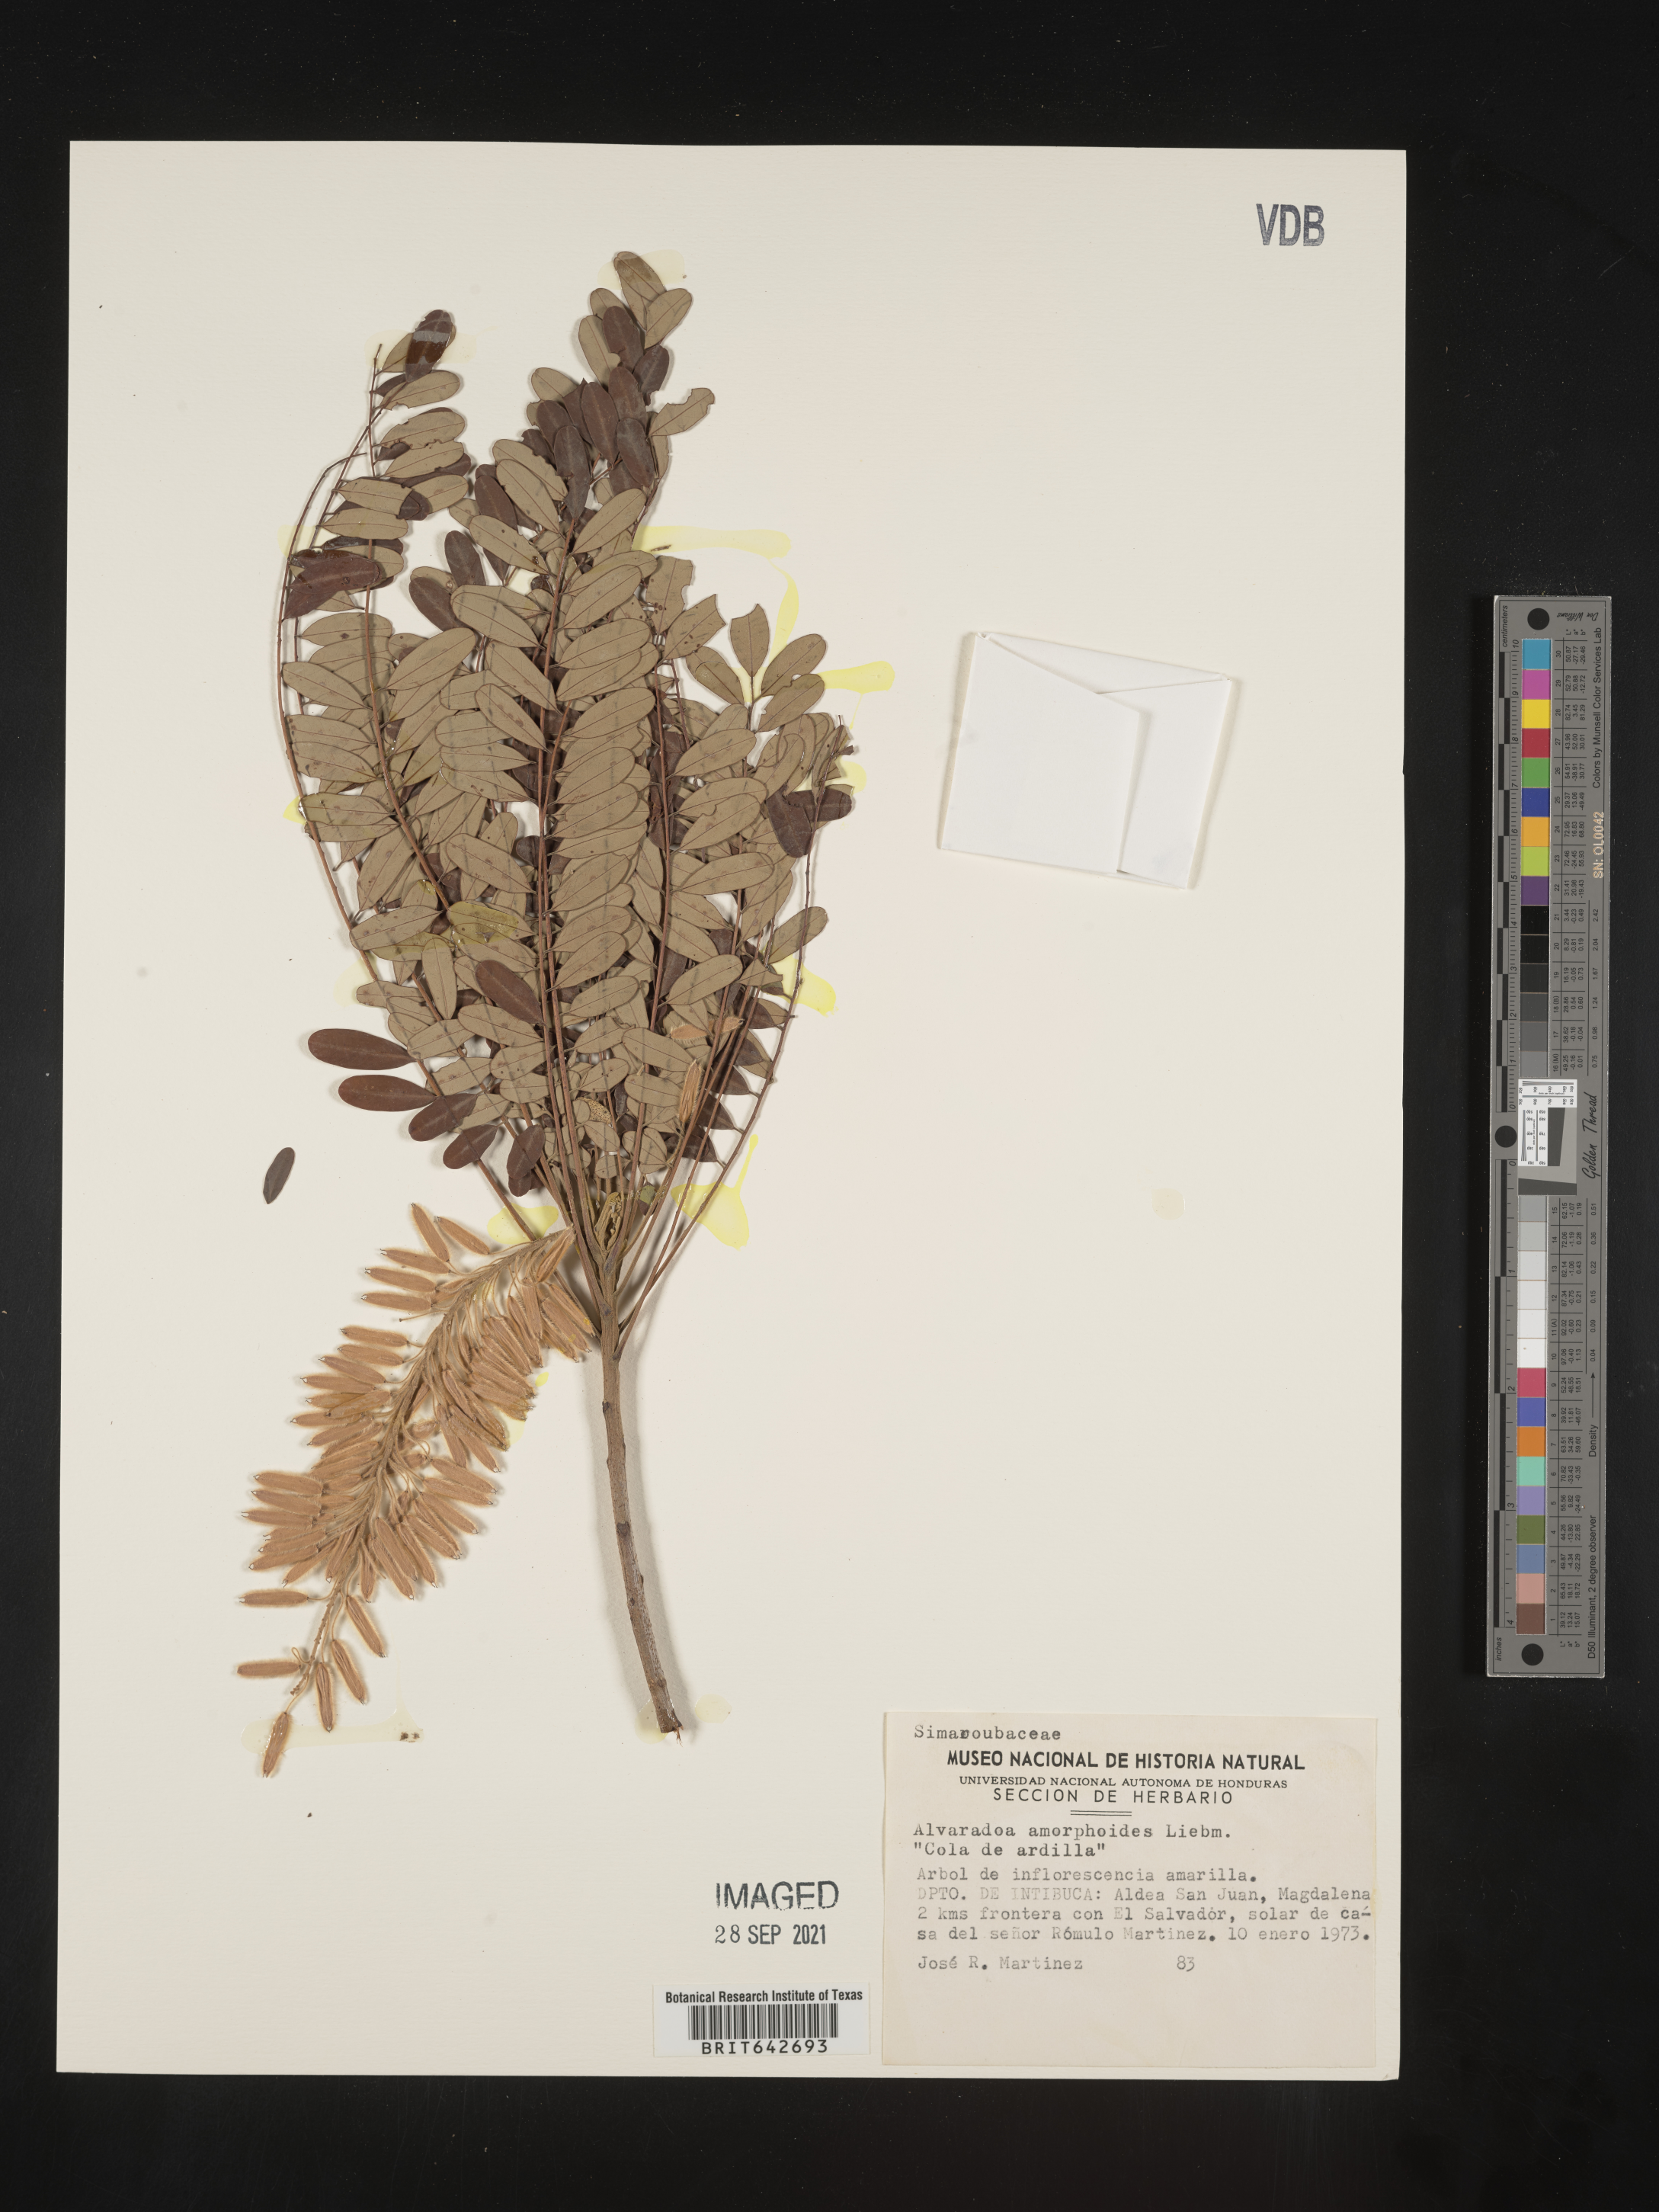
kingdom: Plantae
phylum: Tracheophyta
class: Magnoliopsida
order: Picramniales
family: Picramniaceae
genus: Alvaradoa
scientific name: Alvaradoa
